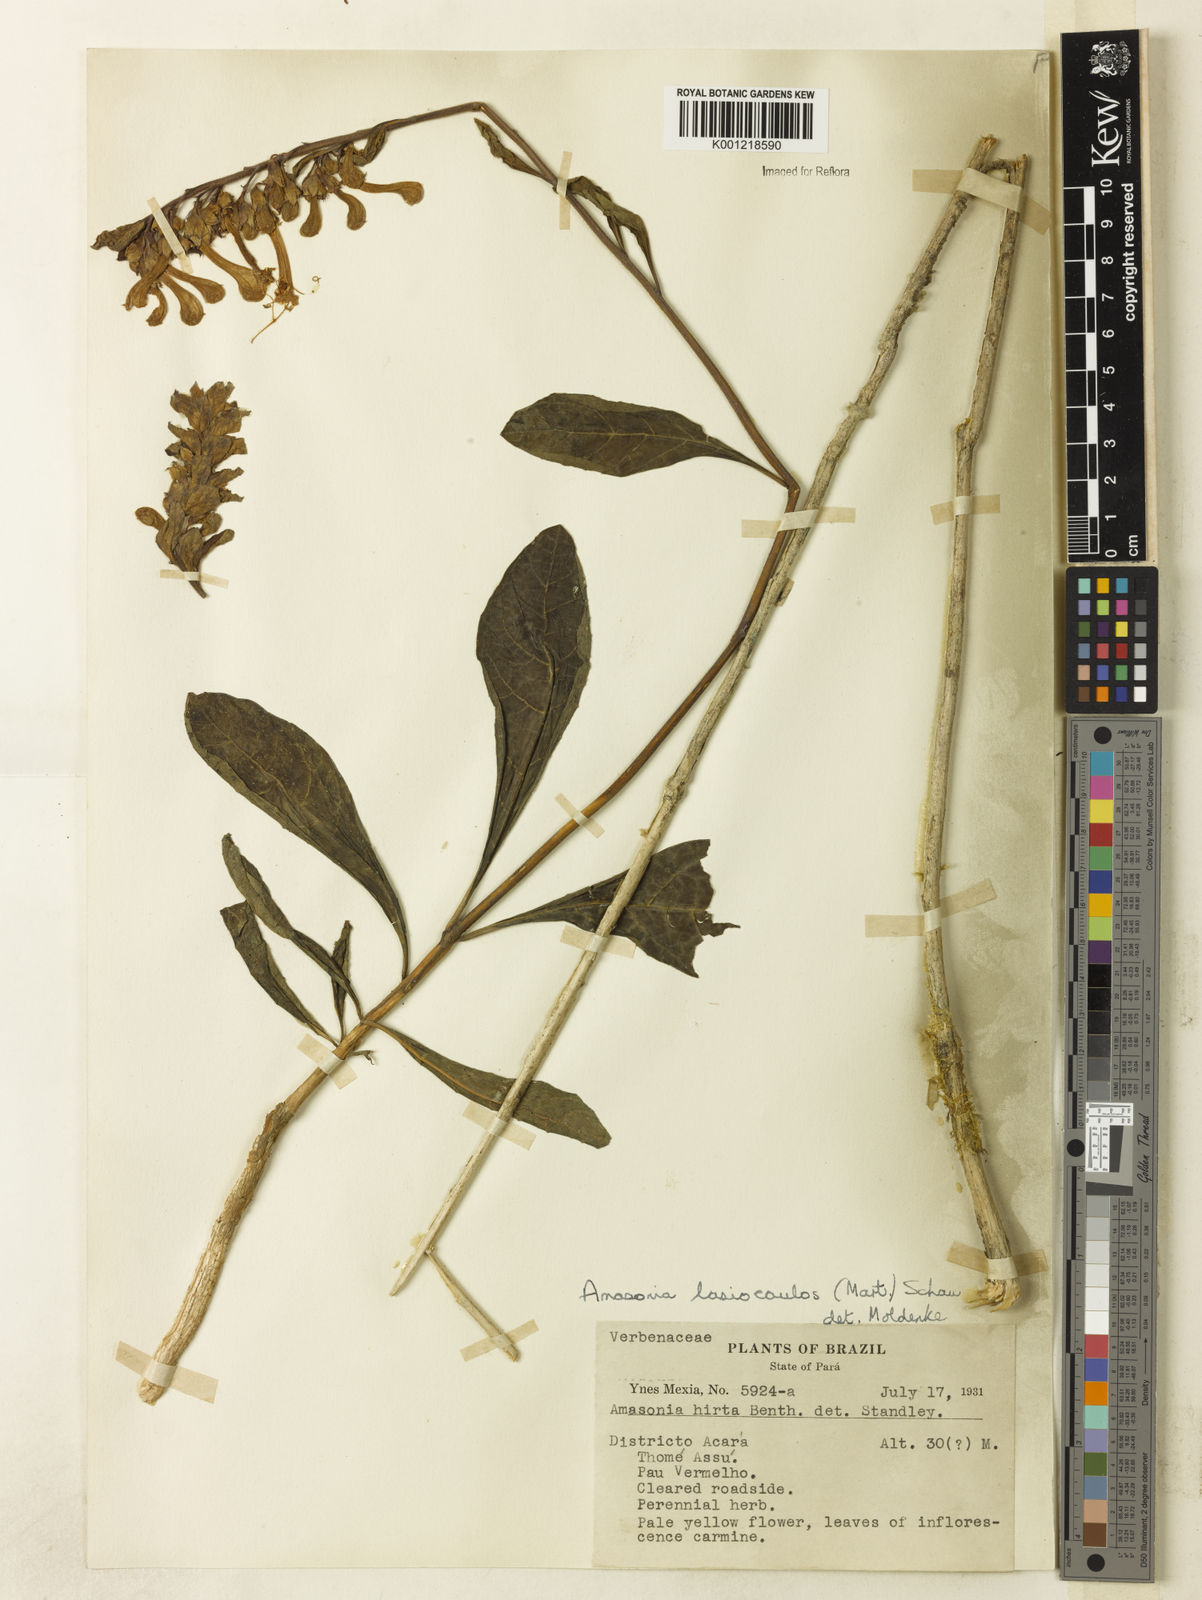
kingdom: Plantae
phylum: Tracheophyta
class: Magnoliopsida
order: Lamiales
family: Lamiaceae
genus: Amasonia
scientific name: Amasonia
